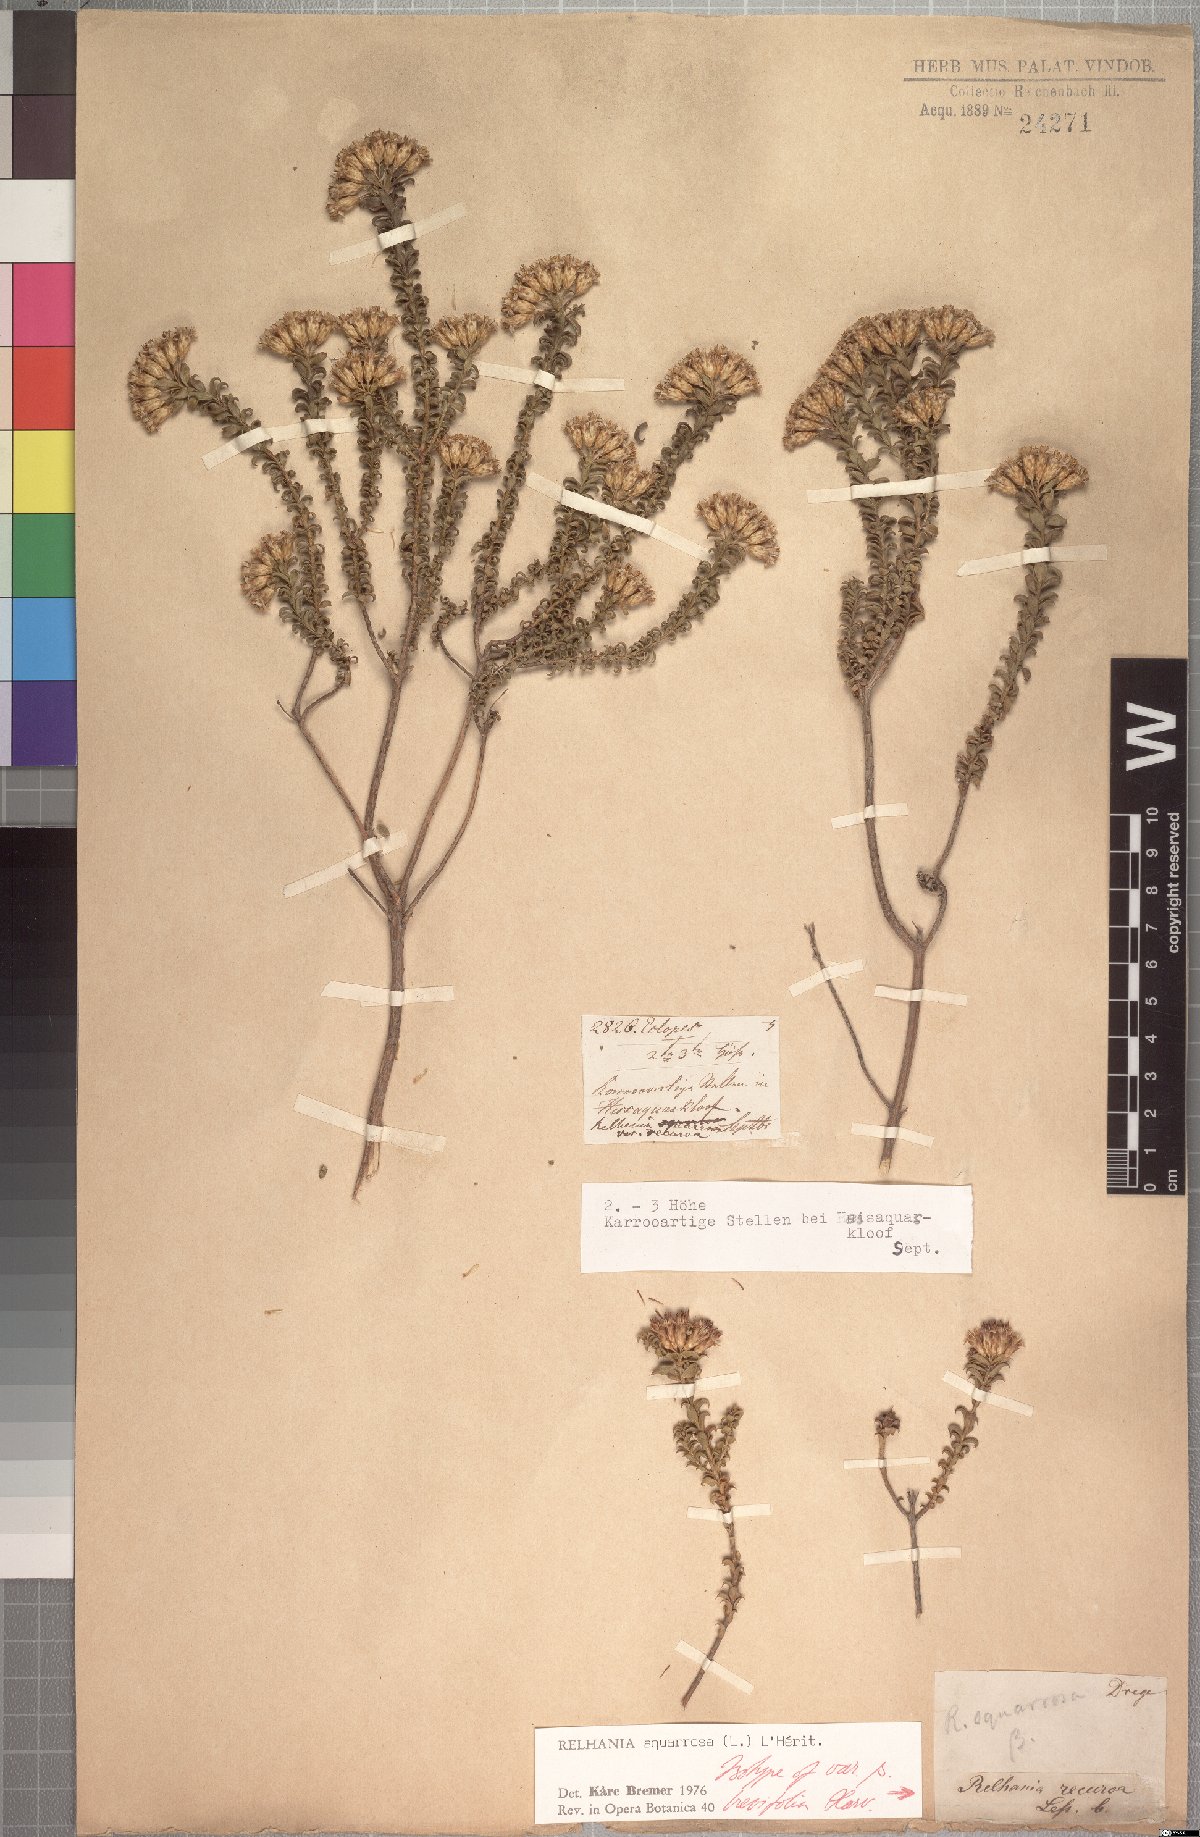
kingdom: Plantae
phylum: Tracheophyta
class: Magnoliopsida
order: Asterales
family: Asteraceae
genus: Oedera
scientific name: Oedera squarrosa
